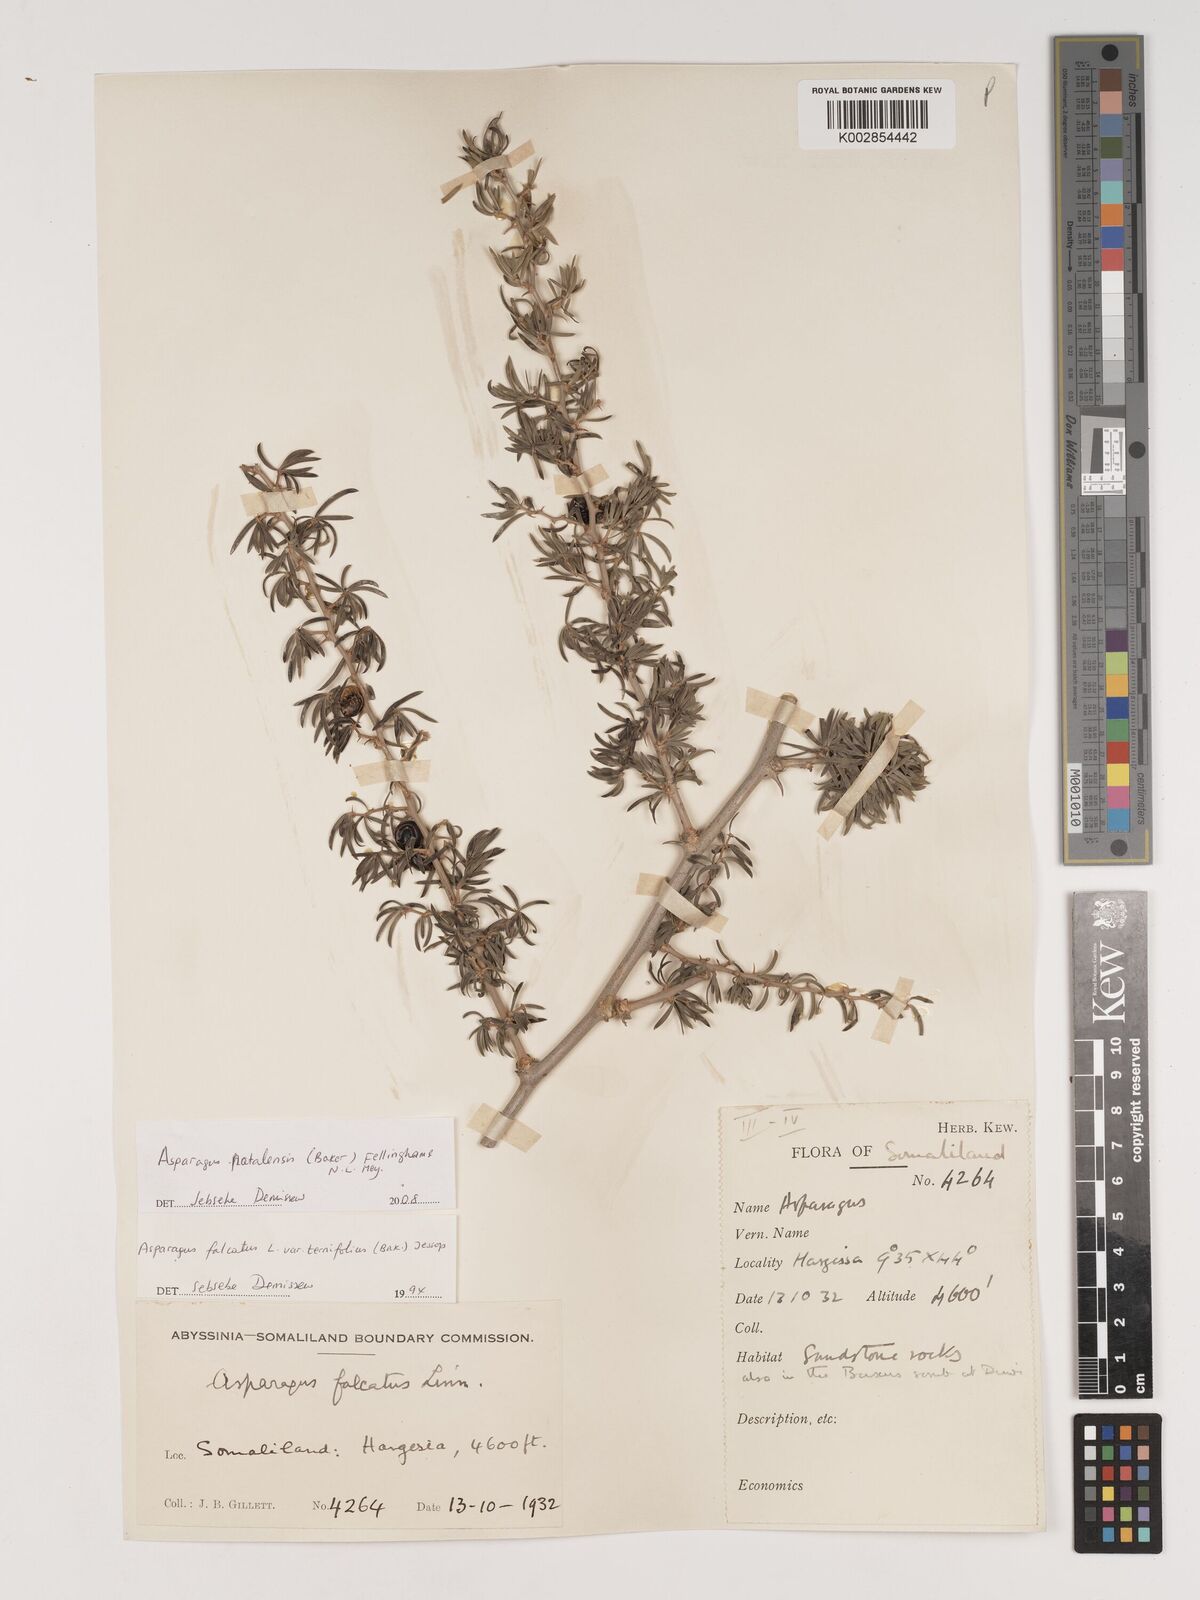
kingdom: Plantae
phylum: Tracheophyta
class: Liliopsida
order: Asparagales
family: Asparagaceae
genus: Asparagus
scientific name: Asparagus natalensis
